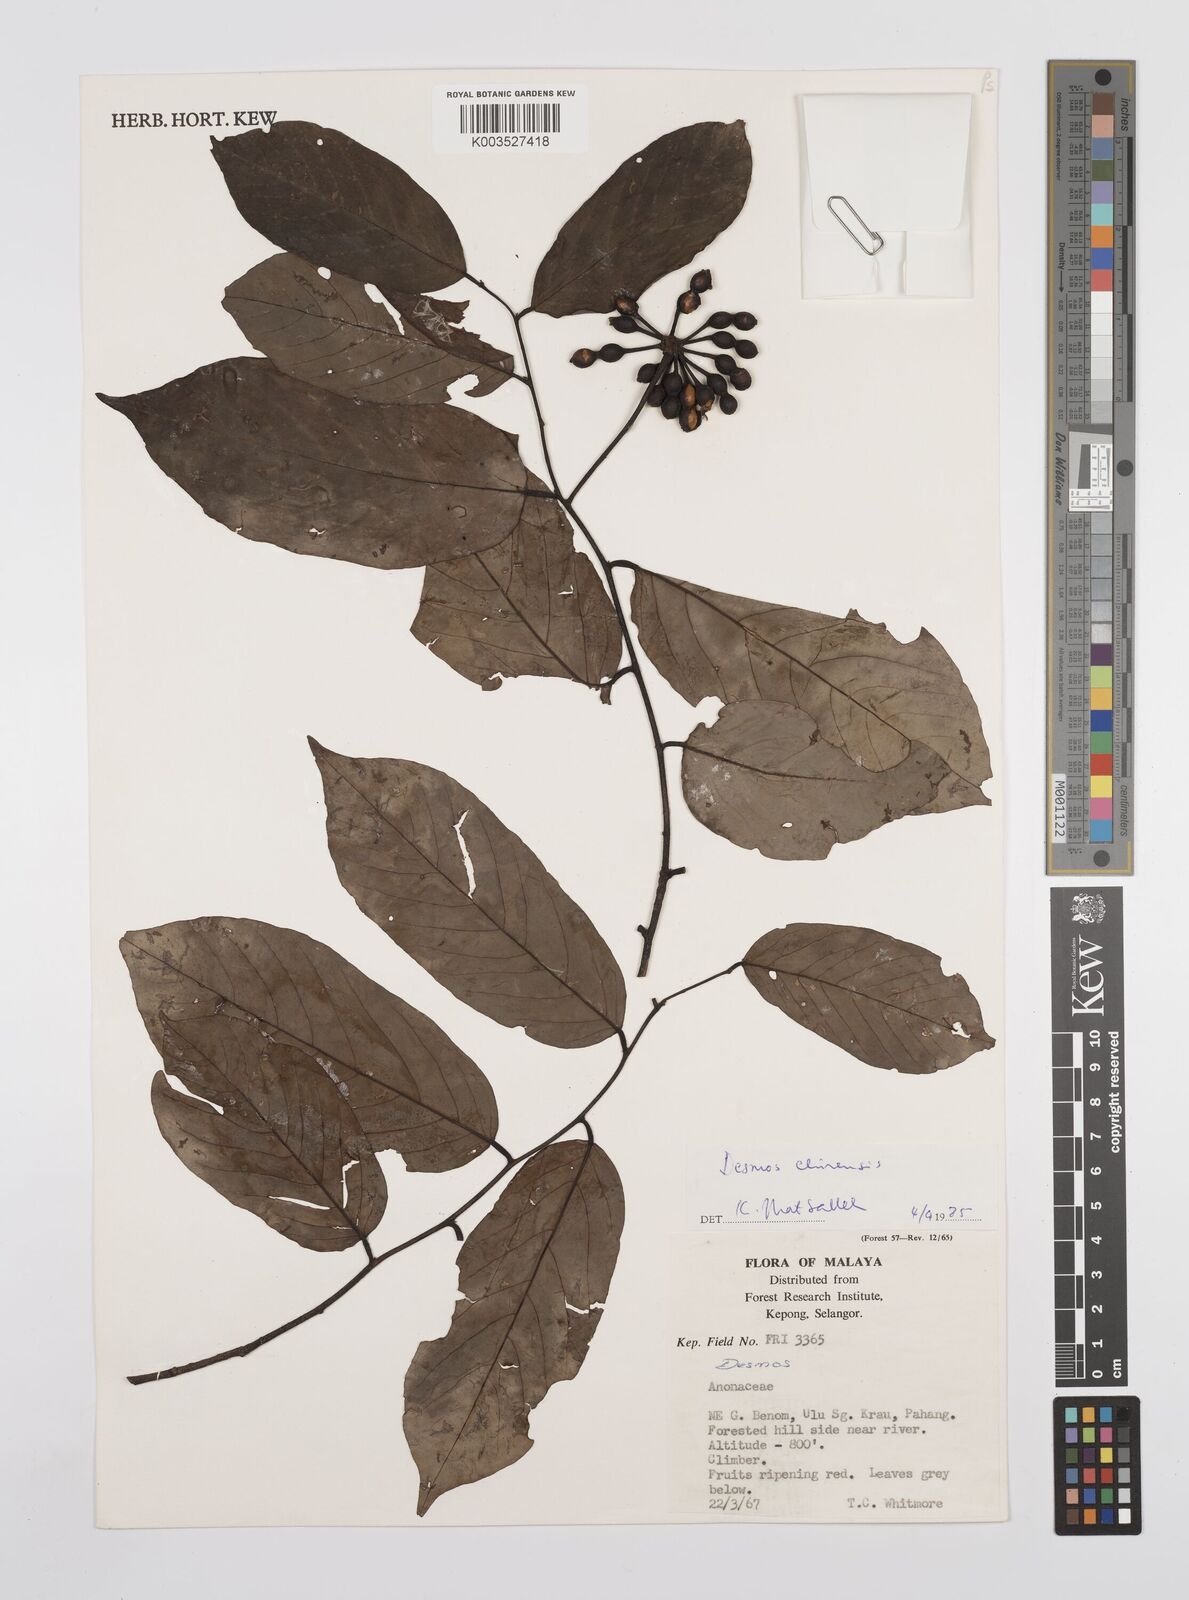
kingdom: Plantae
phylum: Tracheophyta
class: Magnoliopsida
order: Magnoliales
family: Annonaceae
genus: Desmos
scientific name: Desmos chinensis
